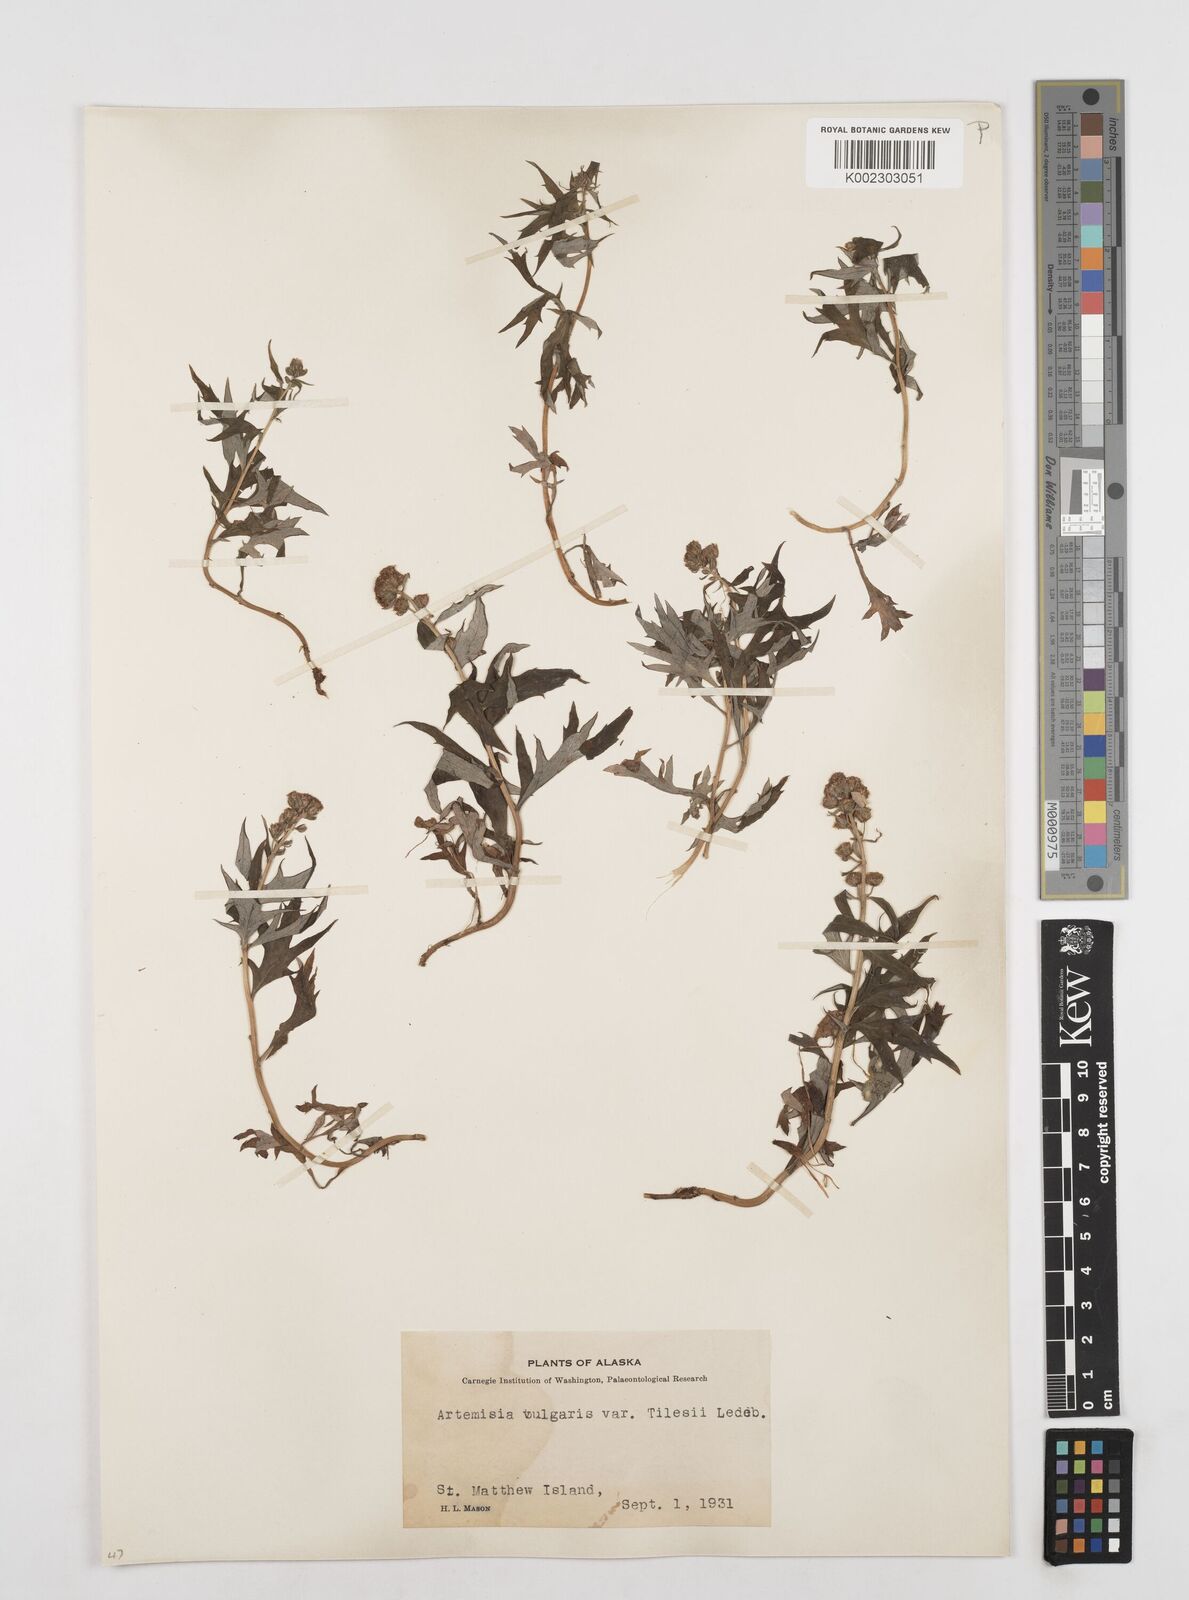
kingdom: Plantae
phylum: Tracheophyta
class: Magnoliopsida
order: Asterales
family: Asteraceae
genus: Artemisia
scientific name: Artemisia tilesii
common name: Aleutian mugwort
